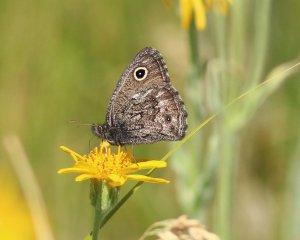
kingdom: Animalia
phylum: Arthropoda
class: Insecta
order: Lepidoptera
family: Nymphalidae
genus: Cercyonis
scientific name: Cercyonis oetus
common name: Small Wood-Nymph
